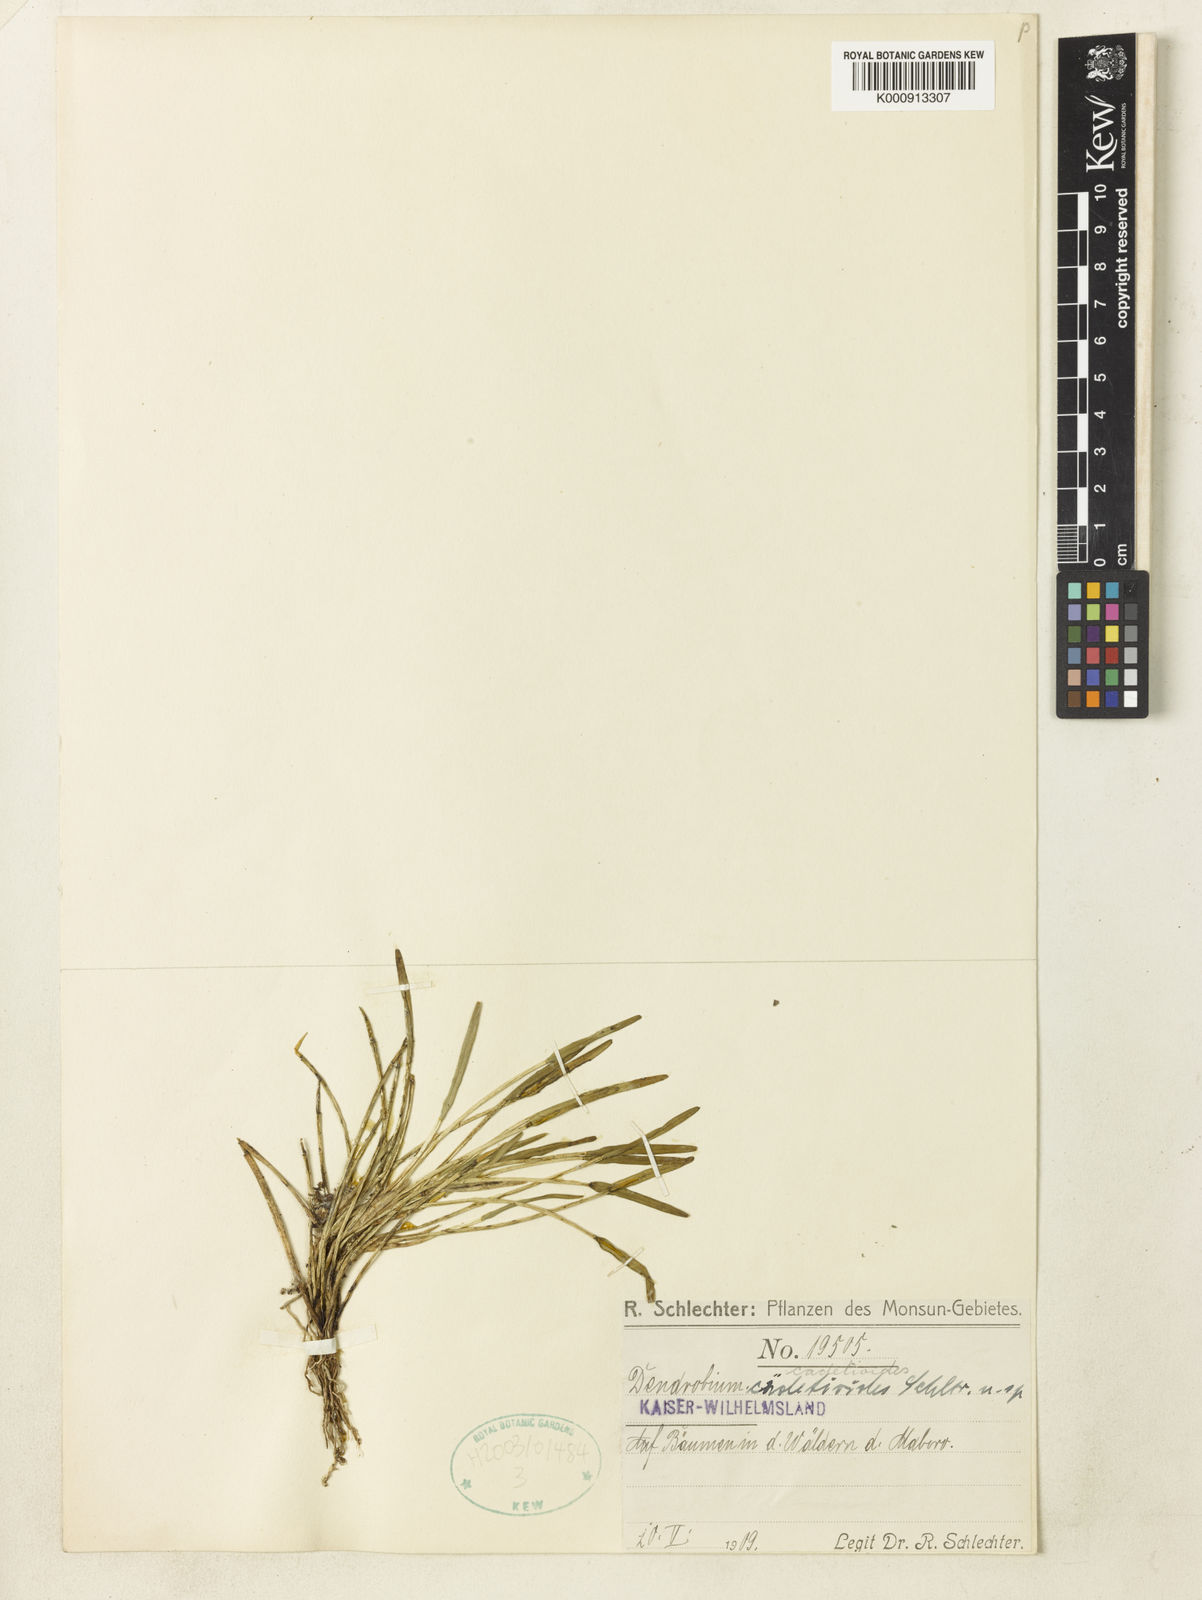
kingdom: Plantae
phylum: Tracheophyta
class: Liliopsida
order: Asparagales
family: Orchidaceae
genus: Dendrobium
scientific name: Dendrobium cadetioides
